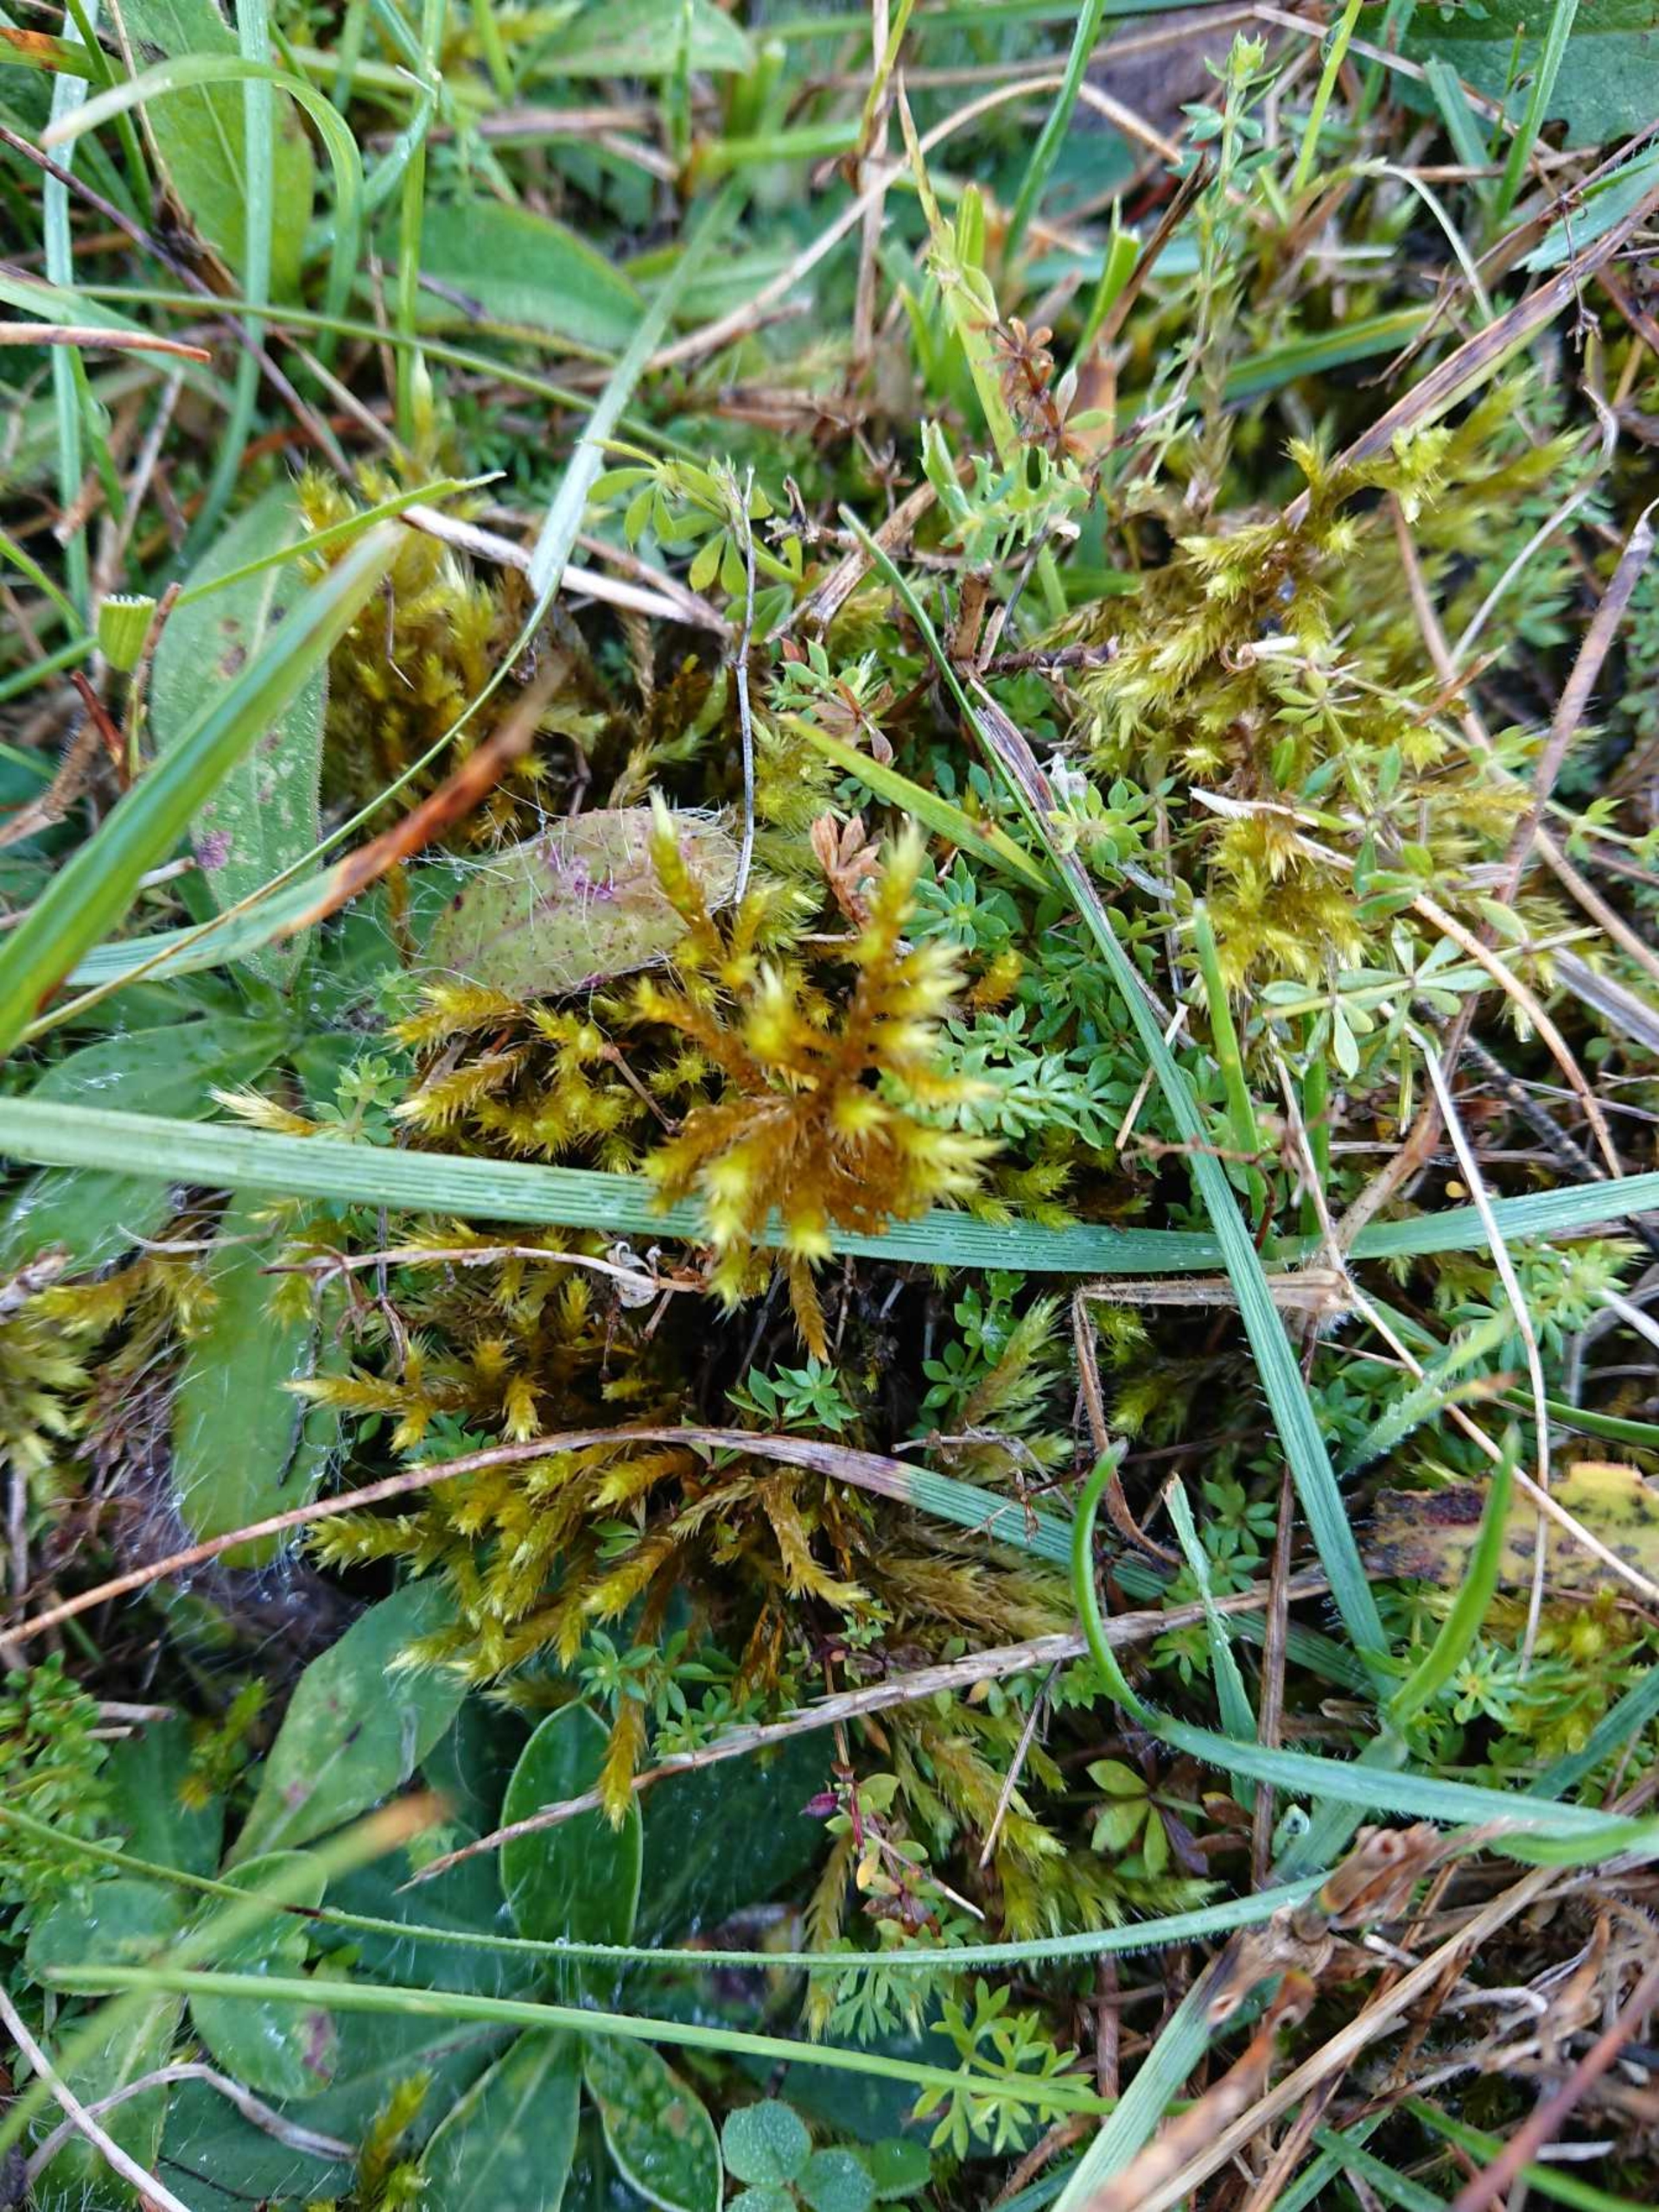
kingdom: Plantae
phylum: Bryophyta
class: Bryopsida
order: Hypnales
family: Brachytheciaceae
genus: Homalothecium
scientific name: Homalothecium lutescens
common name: Gul krumkapsel
